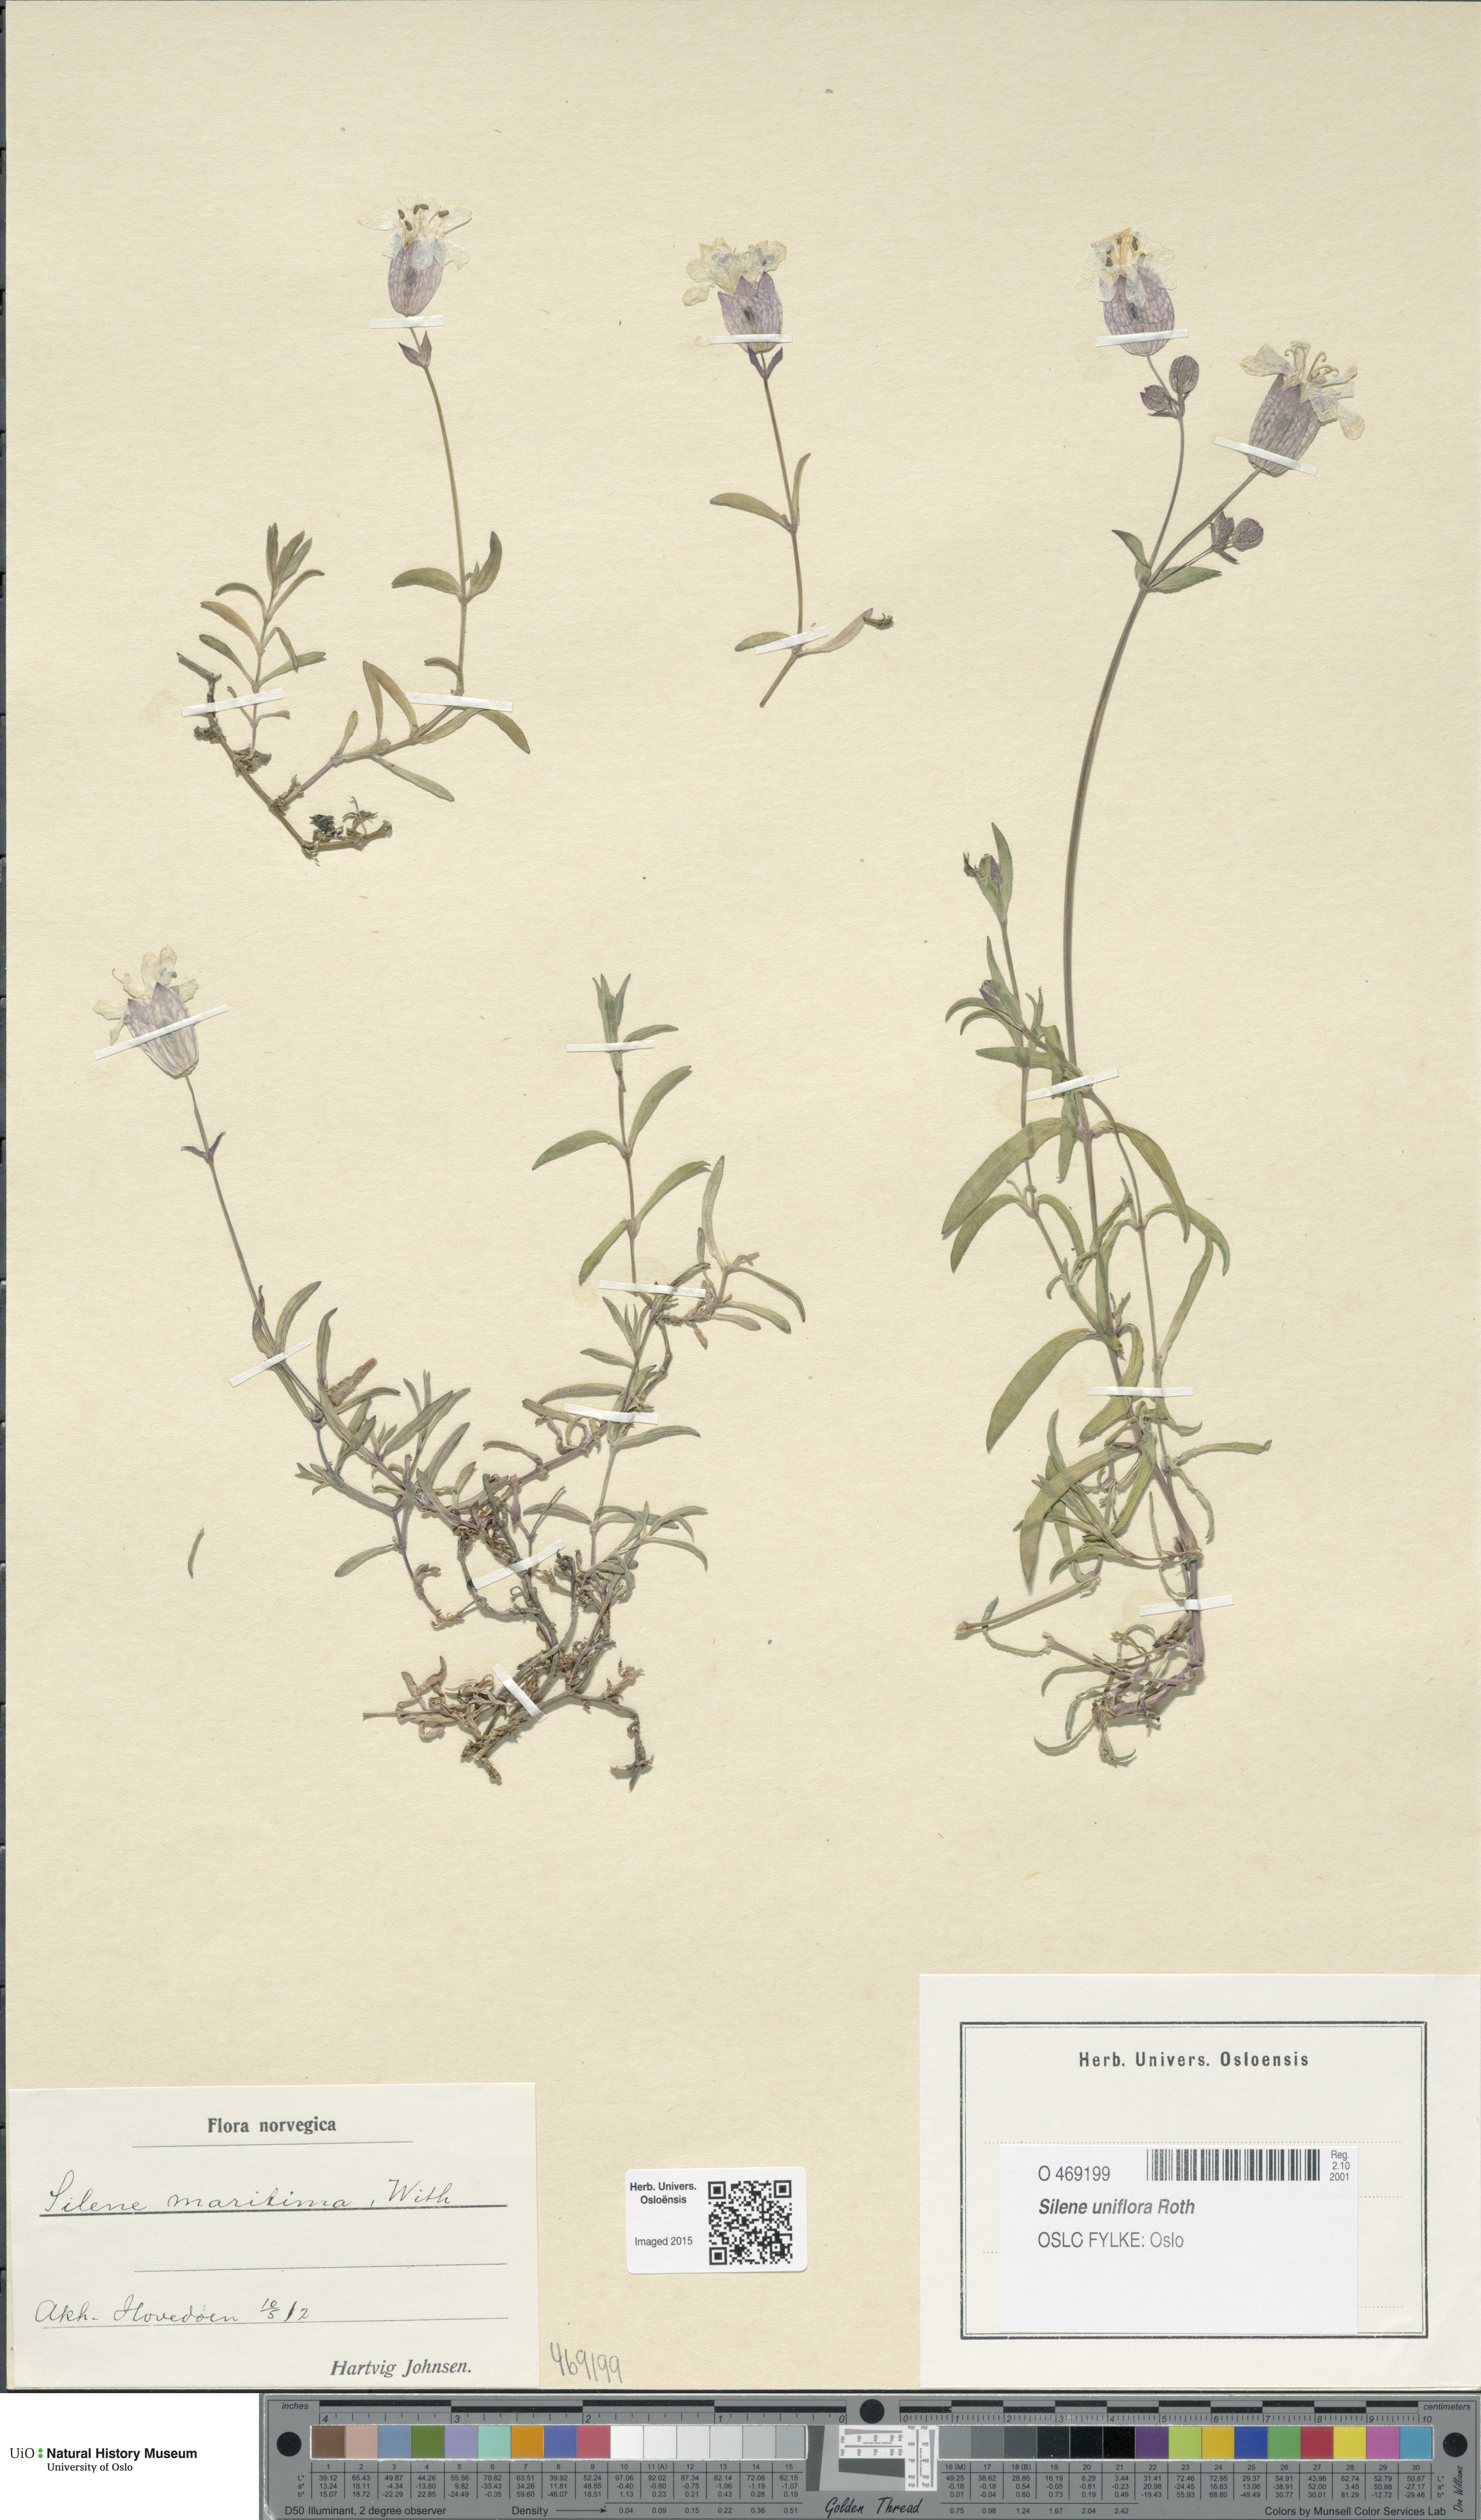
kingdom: Plantae
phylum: Tracheophyta
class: Magnoliopsida
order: Caryophyllales
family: Caryophyllaceae
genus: Silene
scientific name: Silene uniflora
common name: Sea campion
